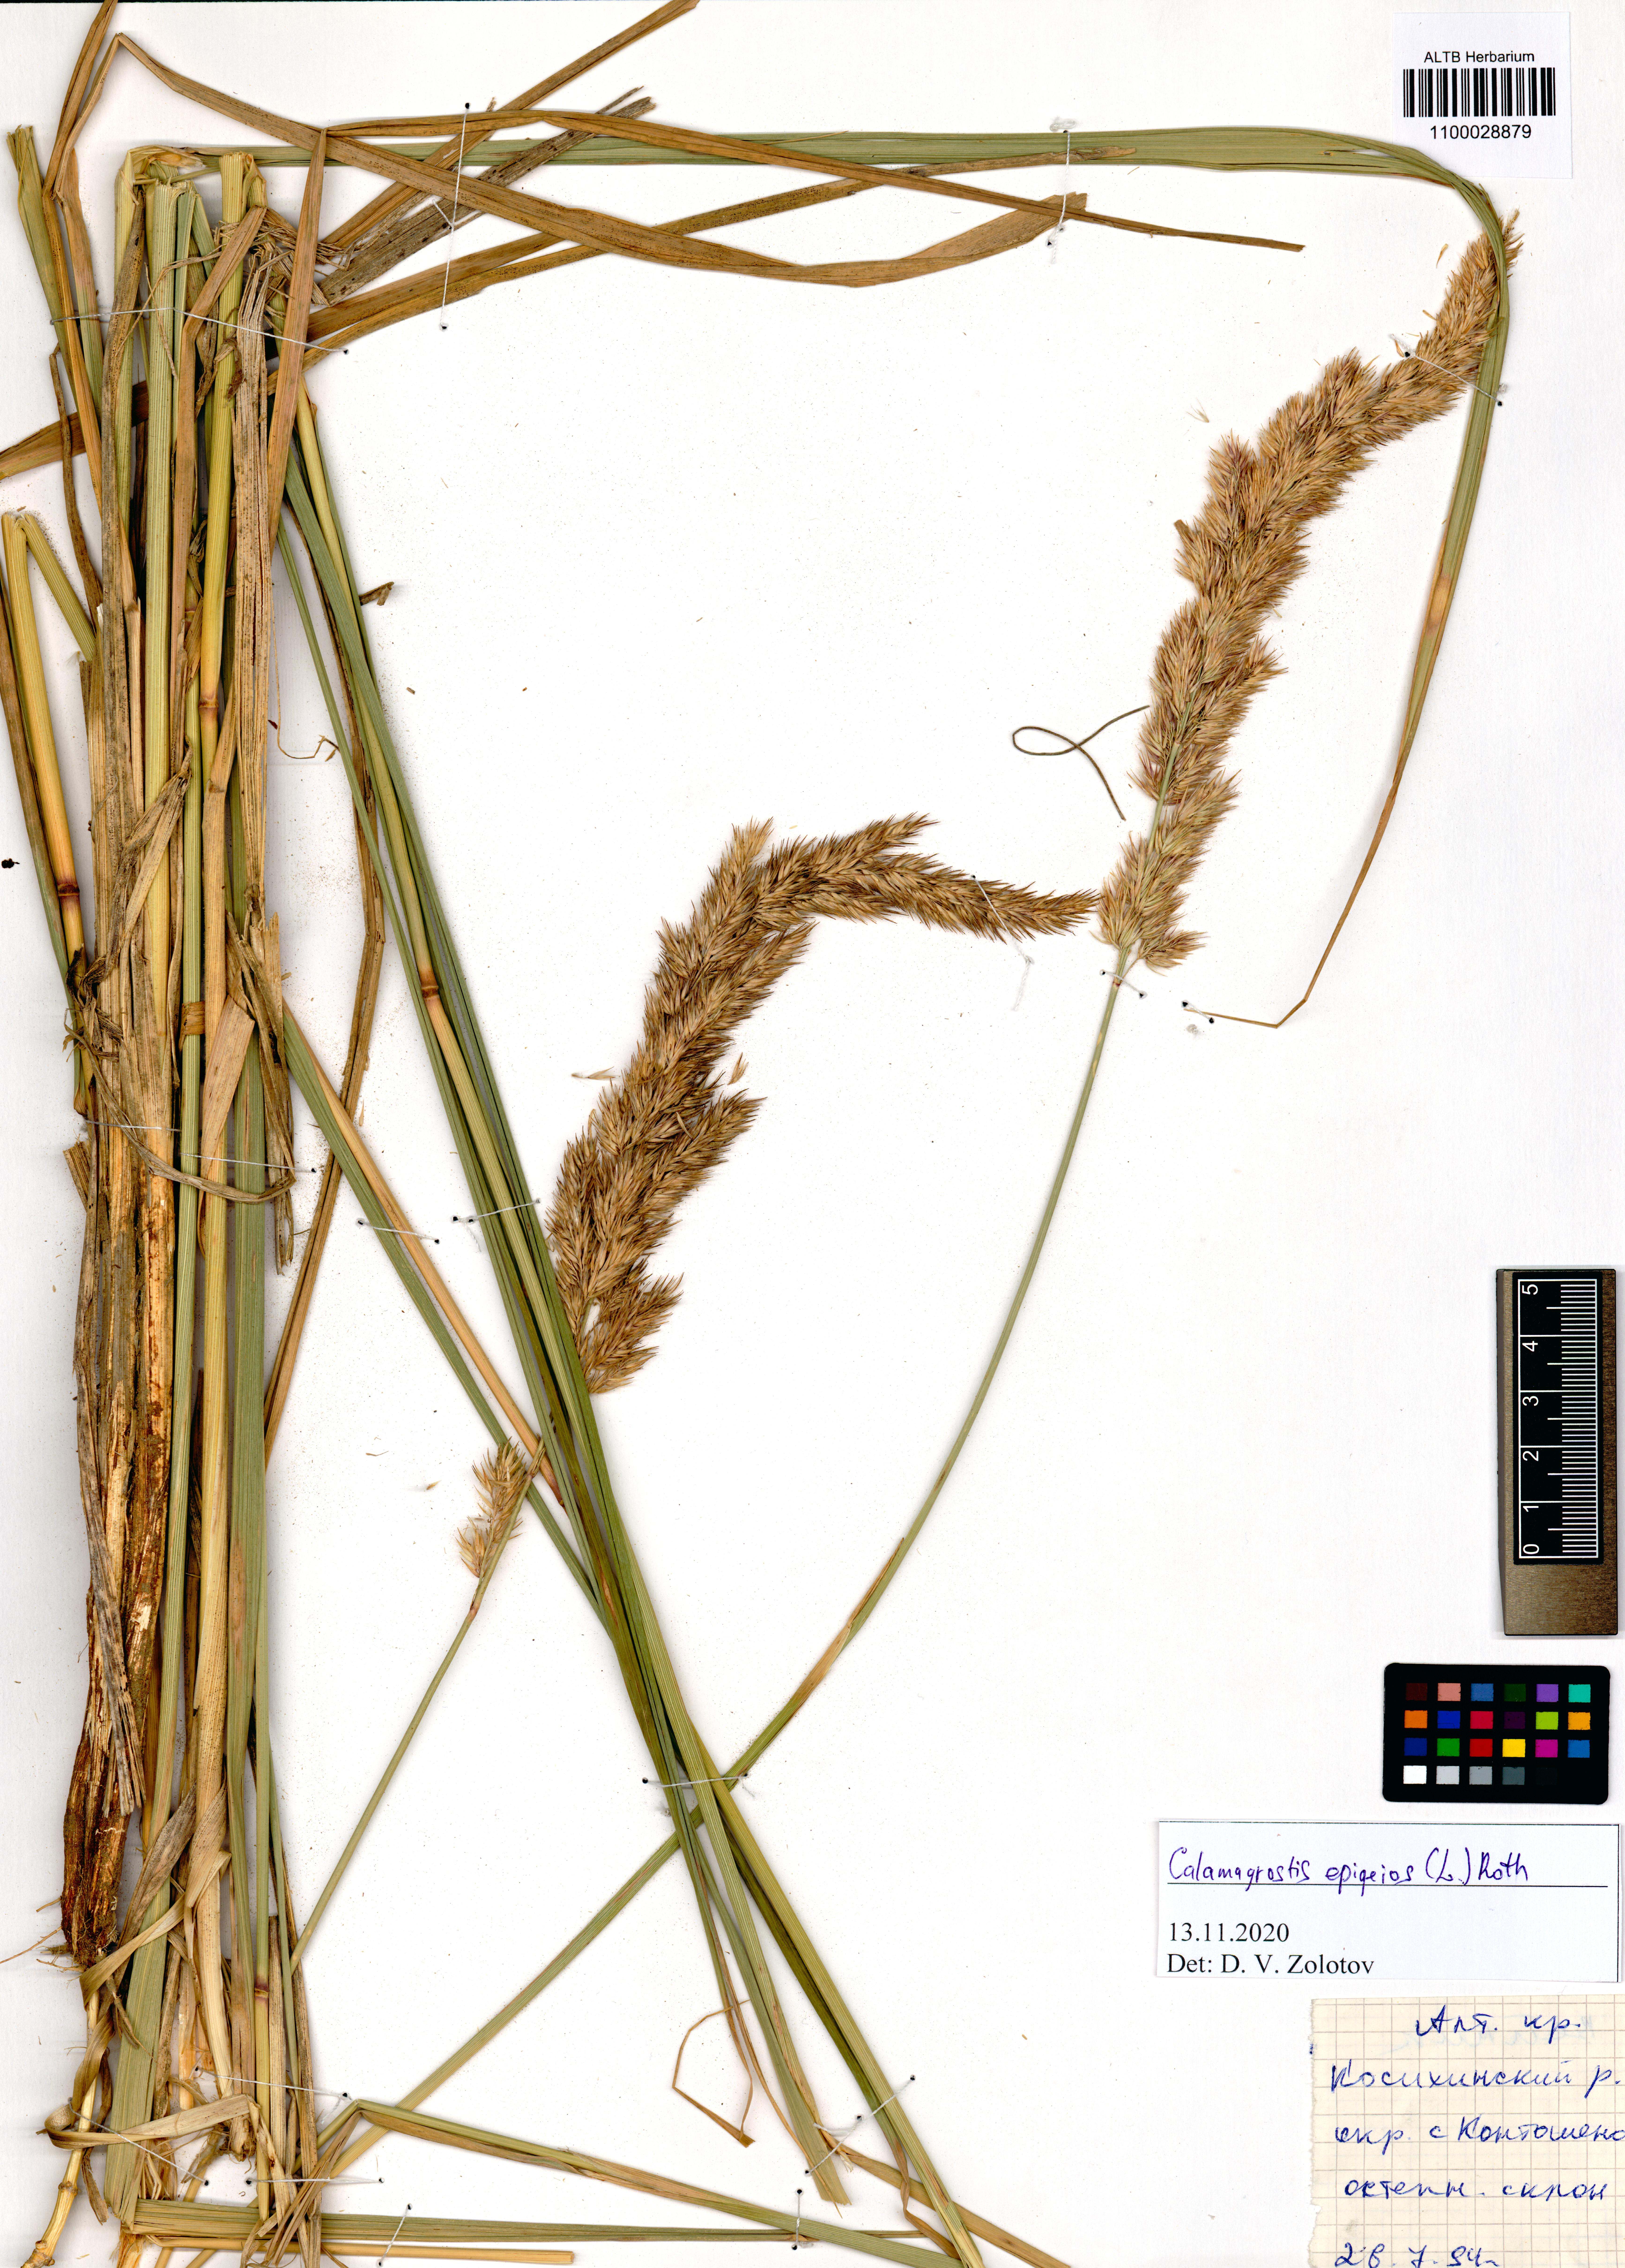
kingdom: Plantae
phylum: Tracheophyta
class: Liliopsida
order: Poales
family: Poaceae
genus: Calamagrostis
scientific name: Calamagrostis epigejos
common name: Wood small-reed
